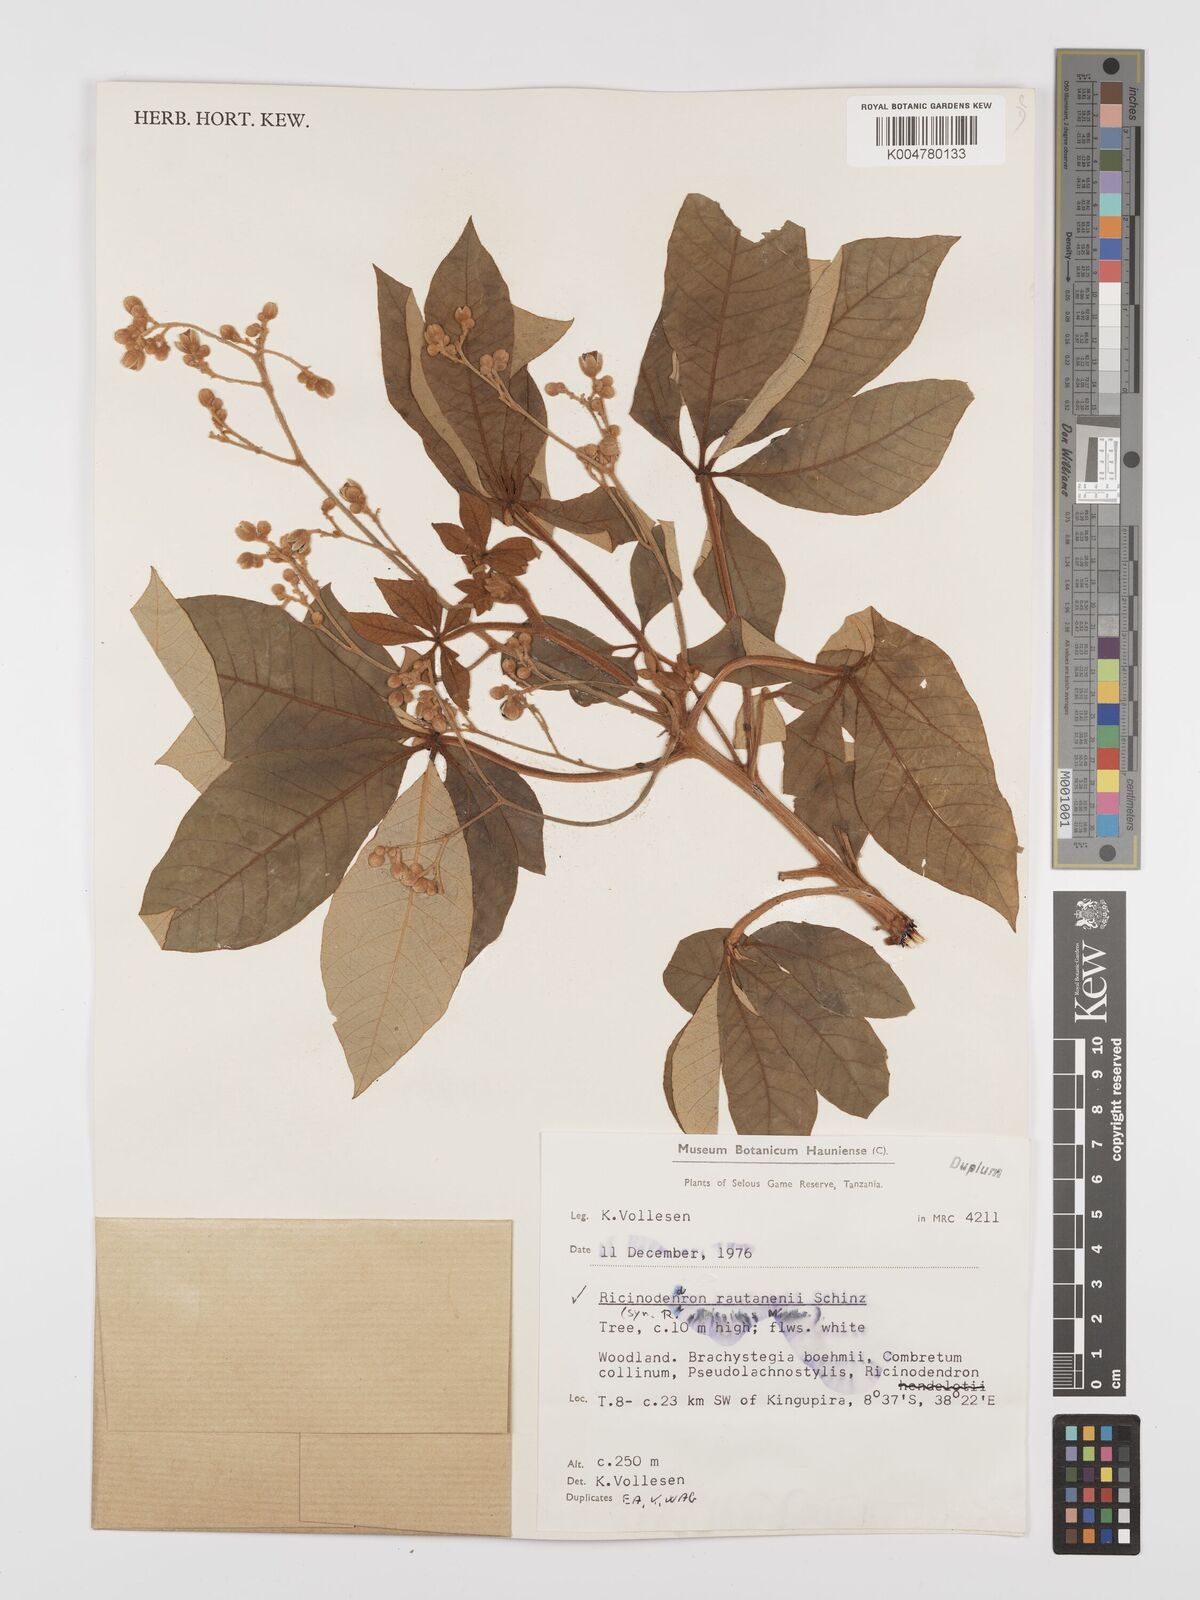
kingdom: Plantae
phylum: Tracheophyta
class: Magnoliopsida
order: Malpighiales
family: Euphorbiaceae
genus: Schinziophyton
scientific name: Schinziophyton rautanenii
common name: Manketti
